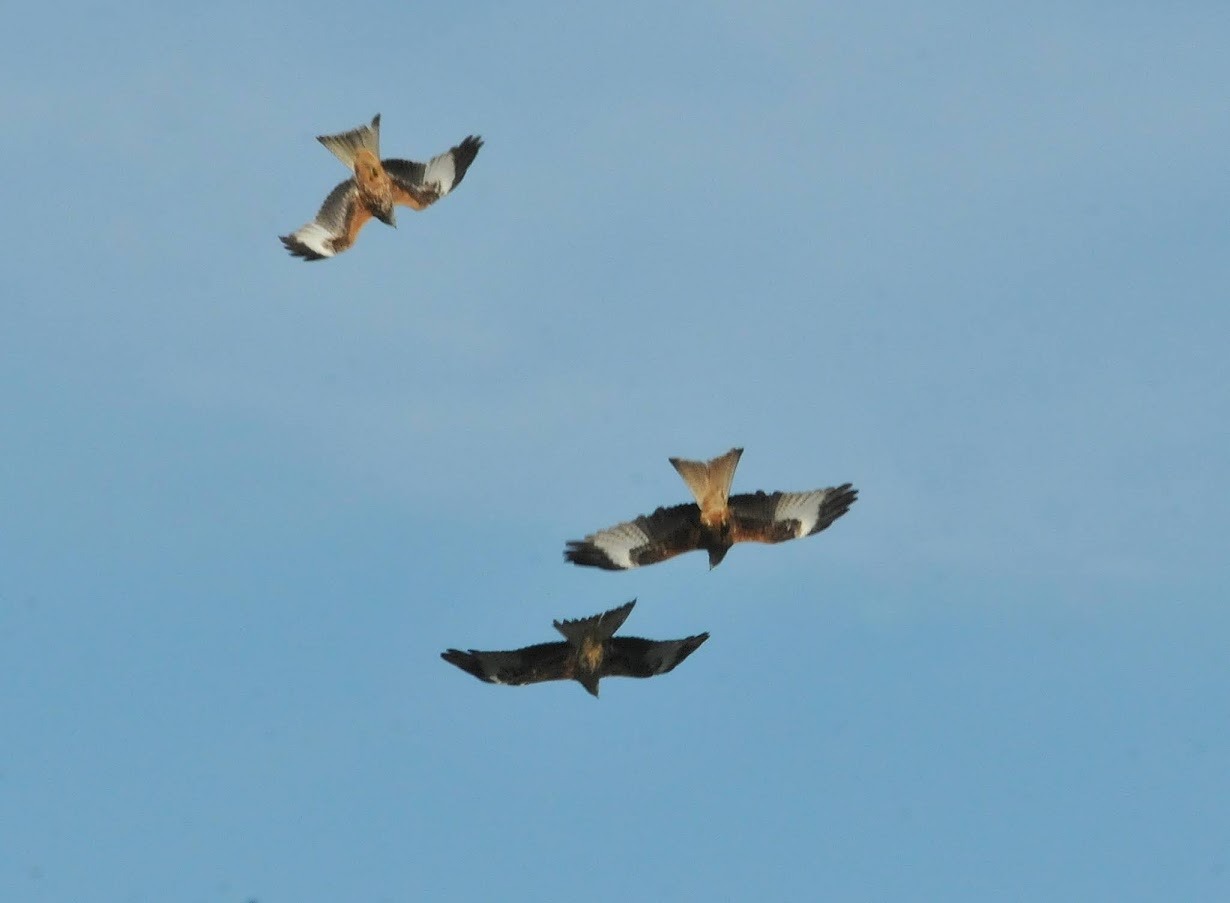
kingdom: Animalia
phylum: Chordata
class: Aves
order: Accipitriformes
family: Accipitridae
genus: Milvus
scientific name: Milvus milvus
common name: Rød glente
